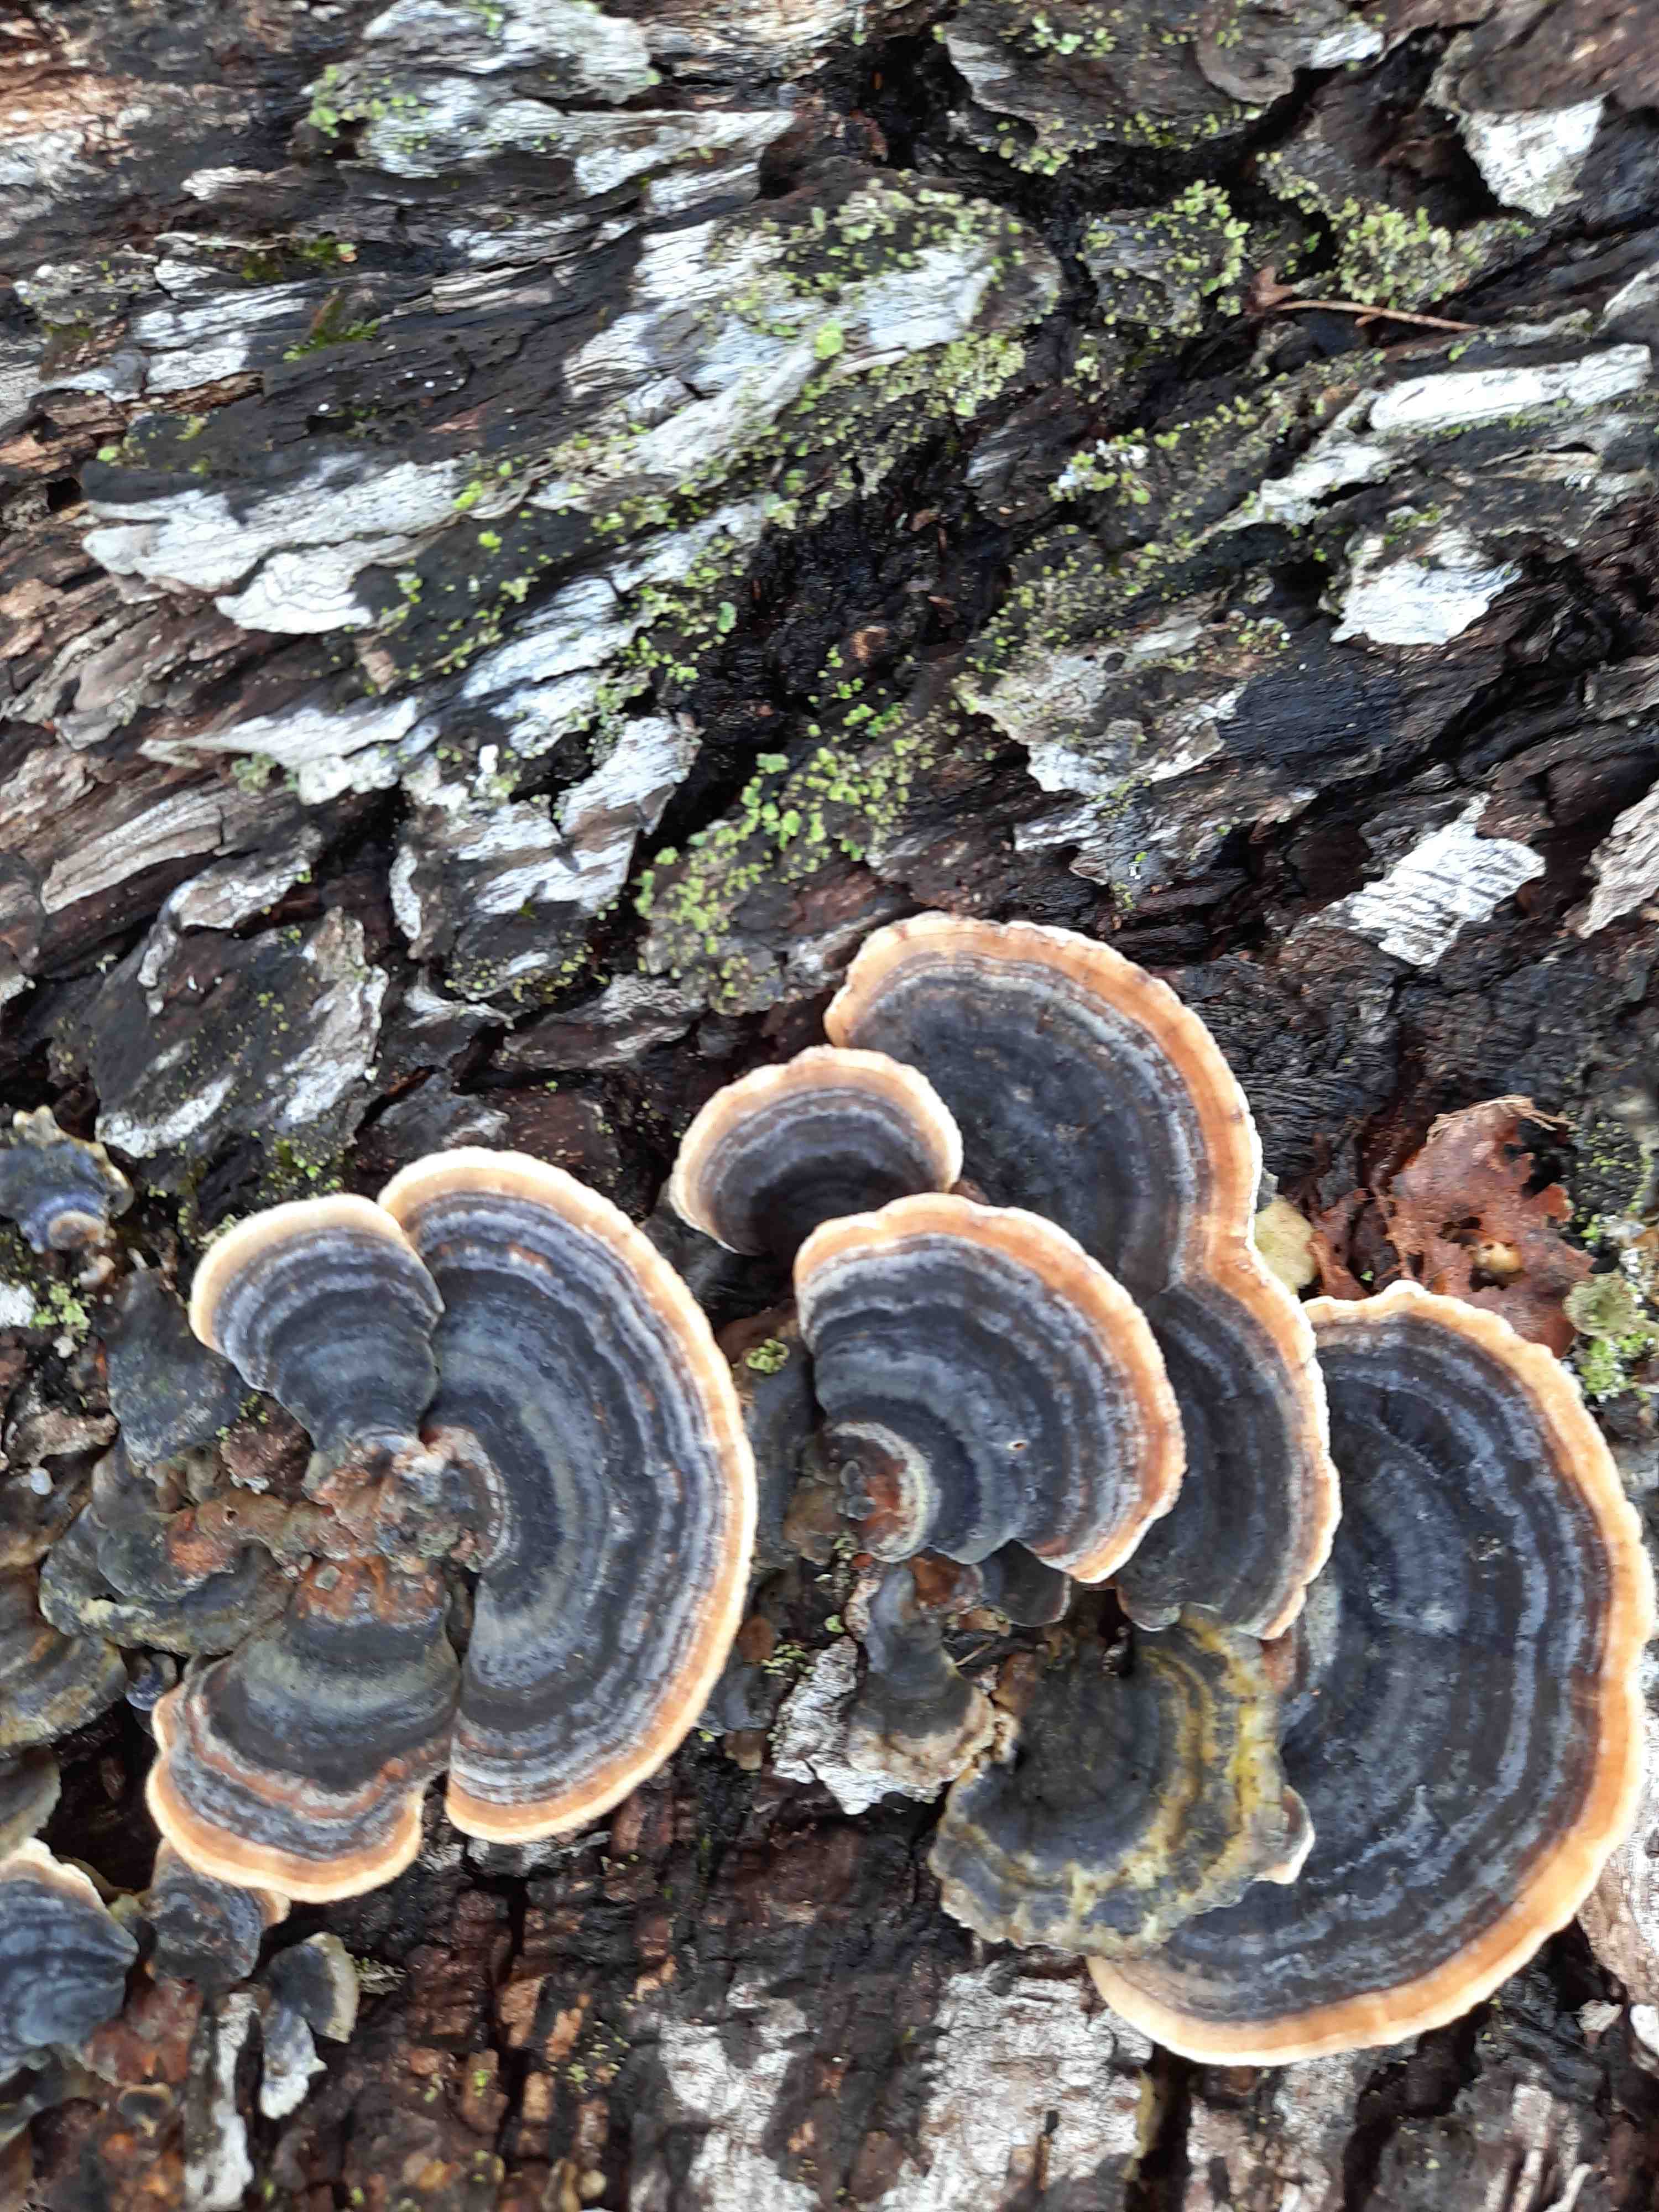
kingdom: Fungi
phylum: Basidiomycota
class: Agaricomycetes
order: Polyporales
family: Polyporaceae
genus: Trametes
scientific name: Trametes versicolor
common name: broget læderporesvamp
